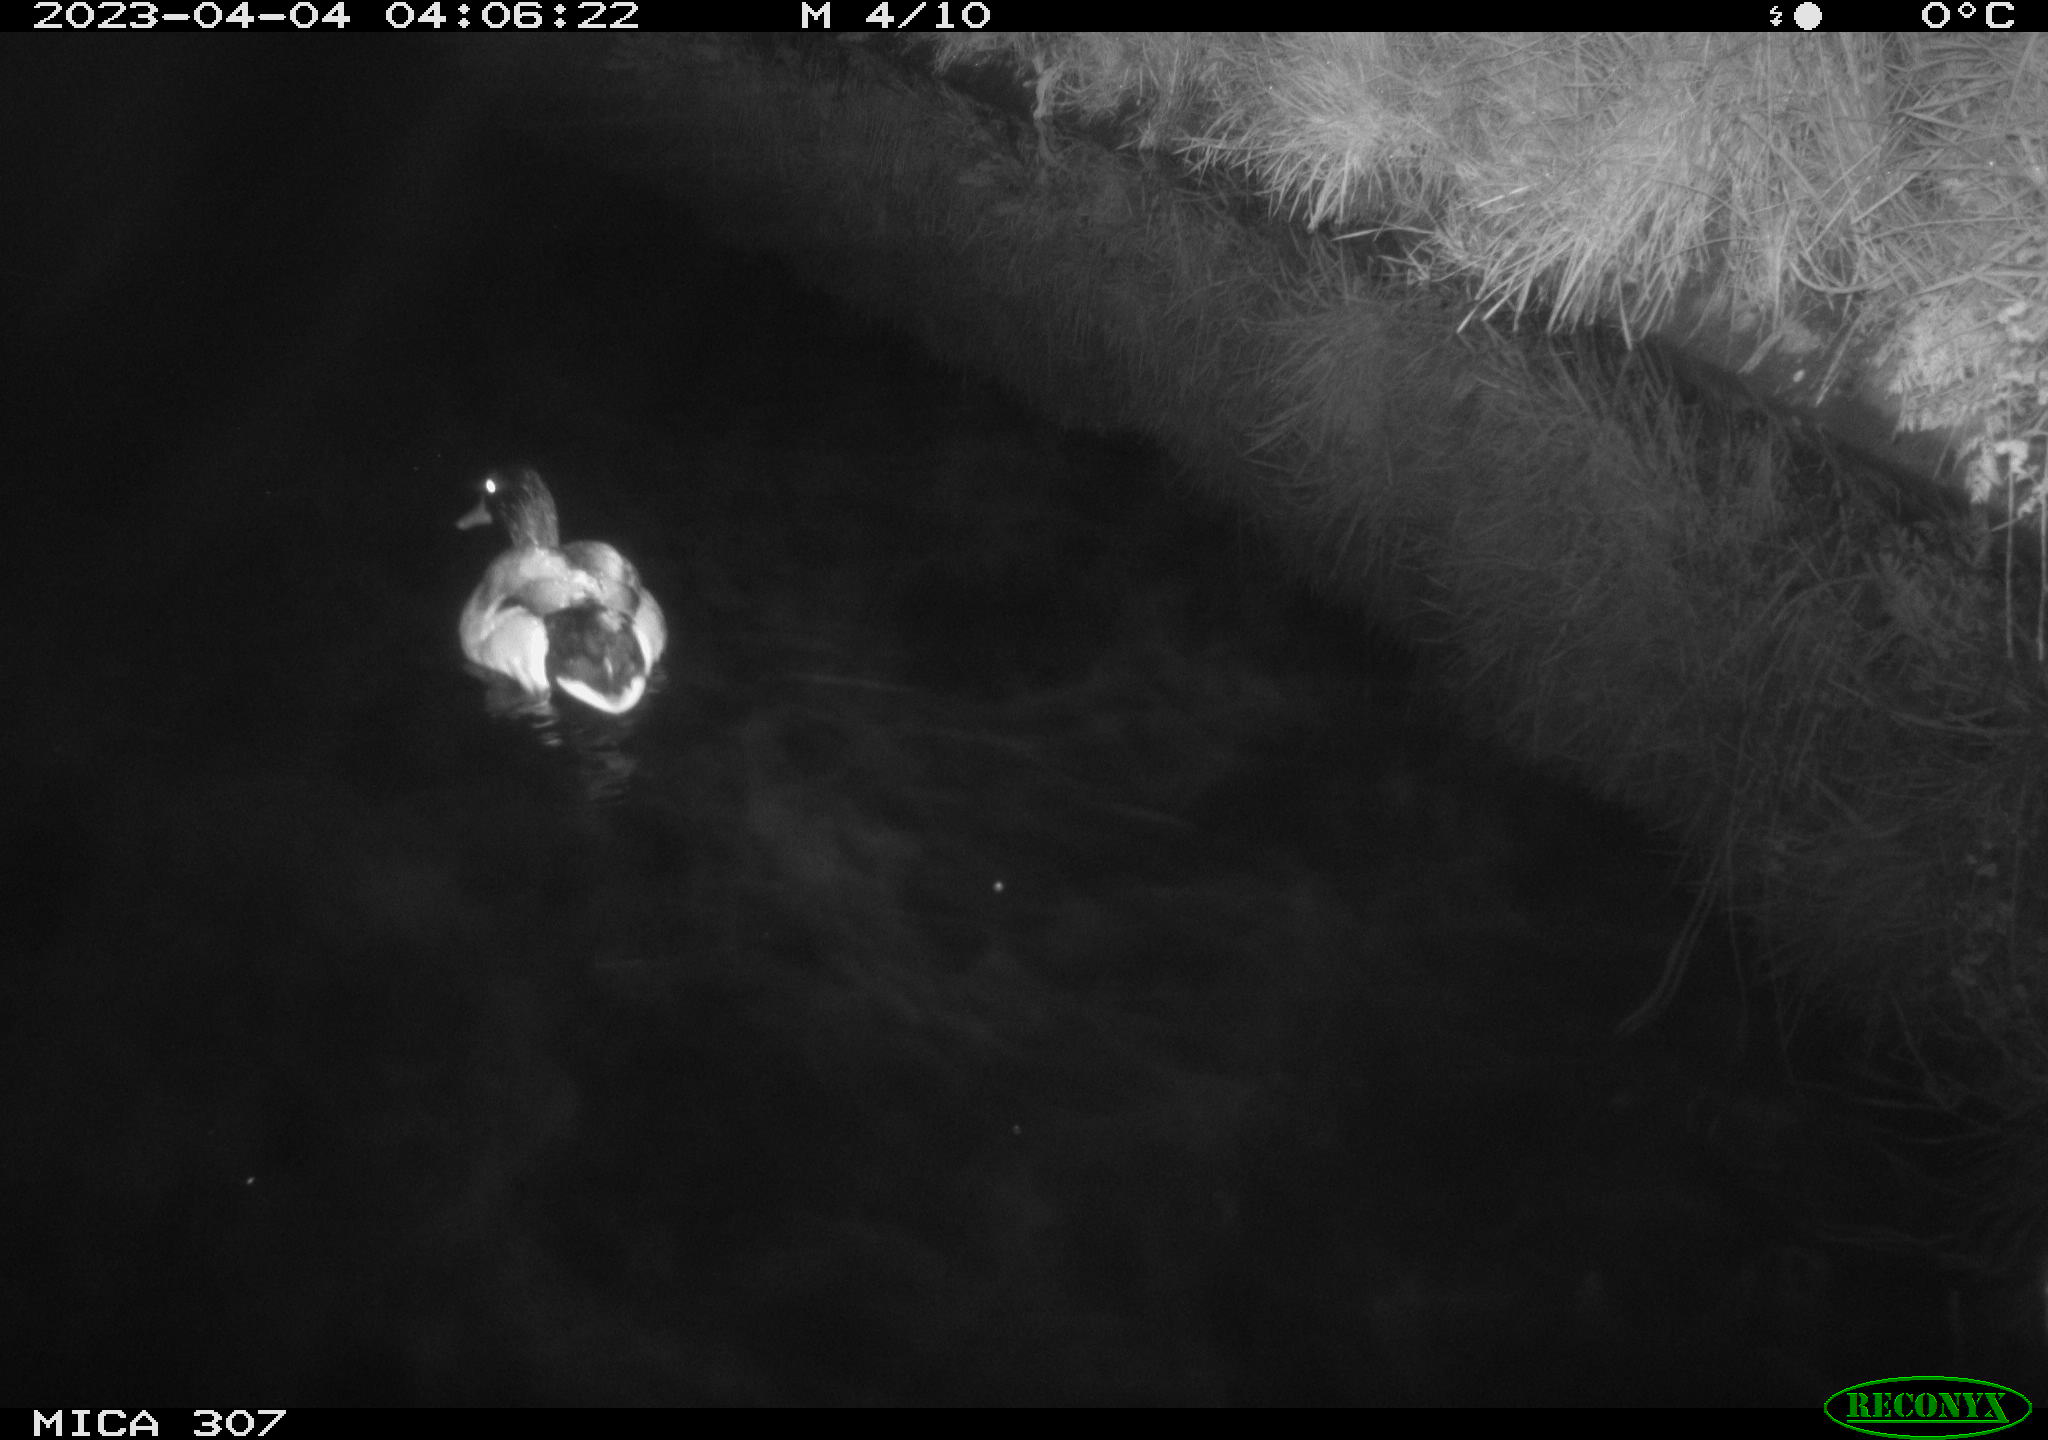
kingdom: Animalia
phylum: Chordata
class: Aves
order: Anseriformes
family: Anatidae
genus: Anas
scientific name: Anas
